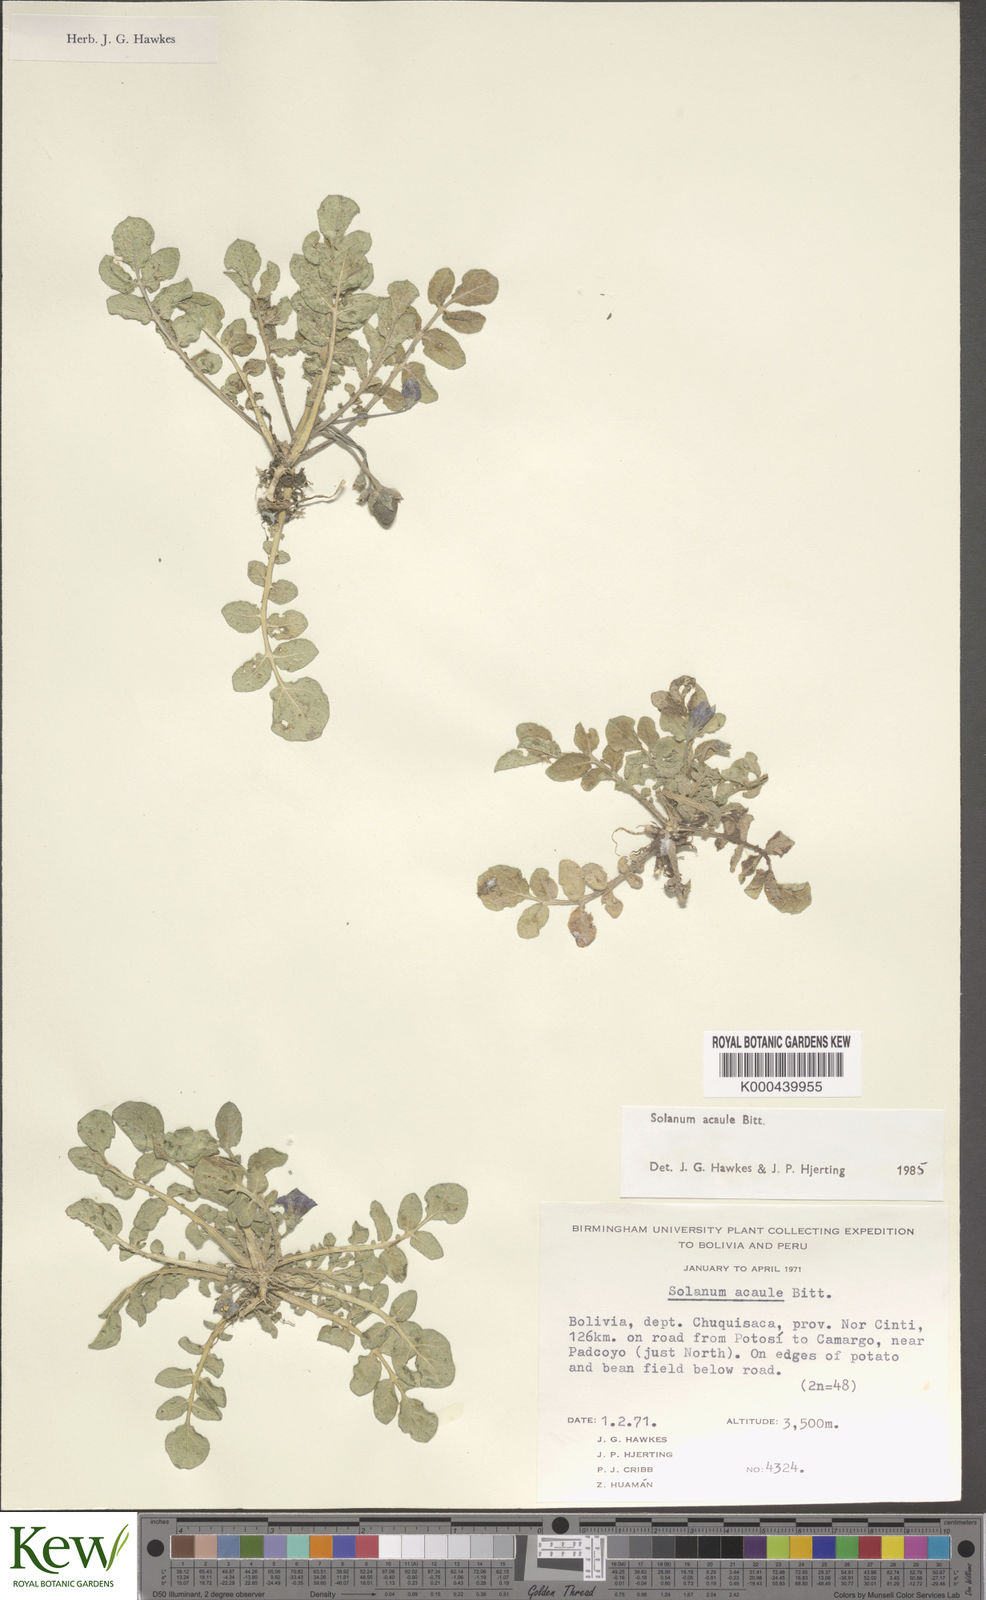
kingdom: Plantae
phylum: Tracheophyta
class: Magnoliopsida
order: Solanales
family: Solanaceae
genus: Solanum
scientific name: Solanum acaule
